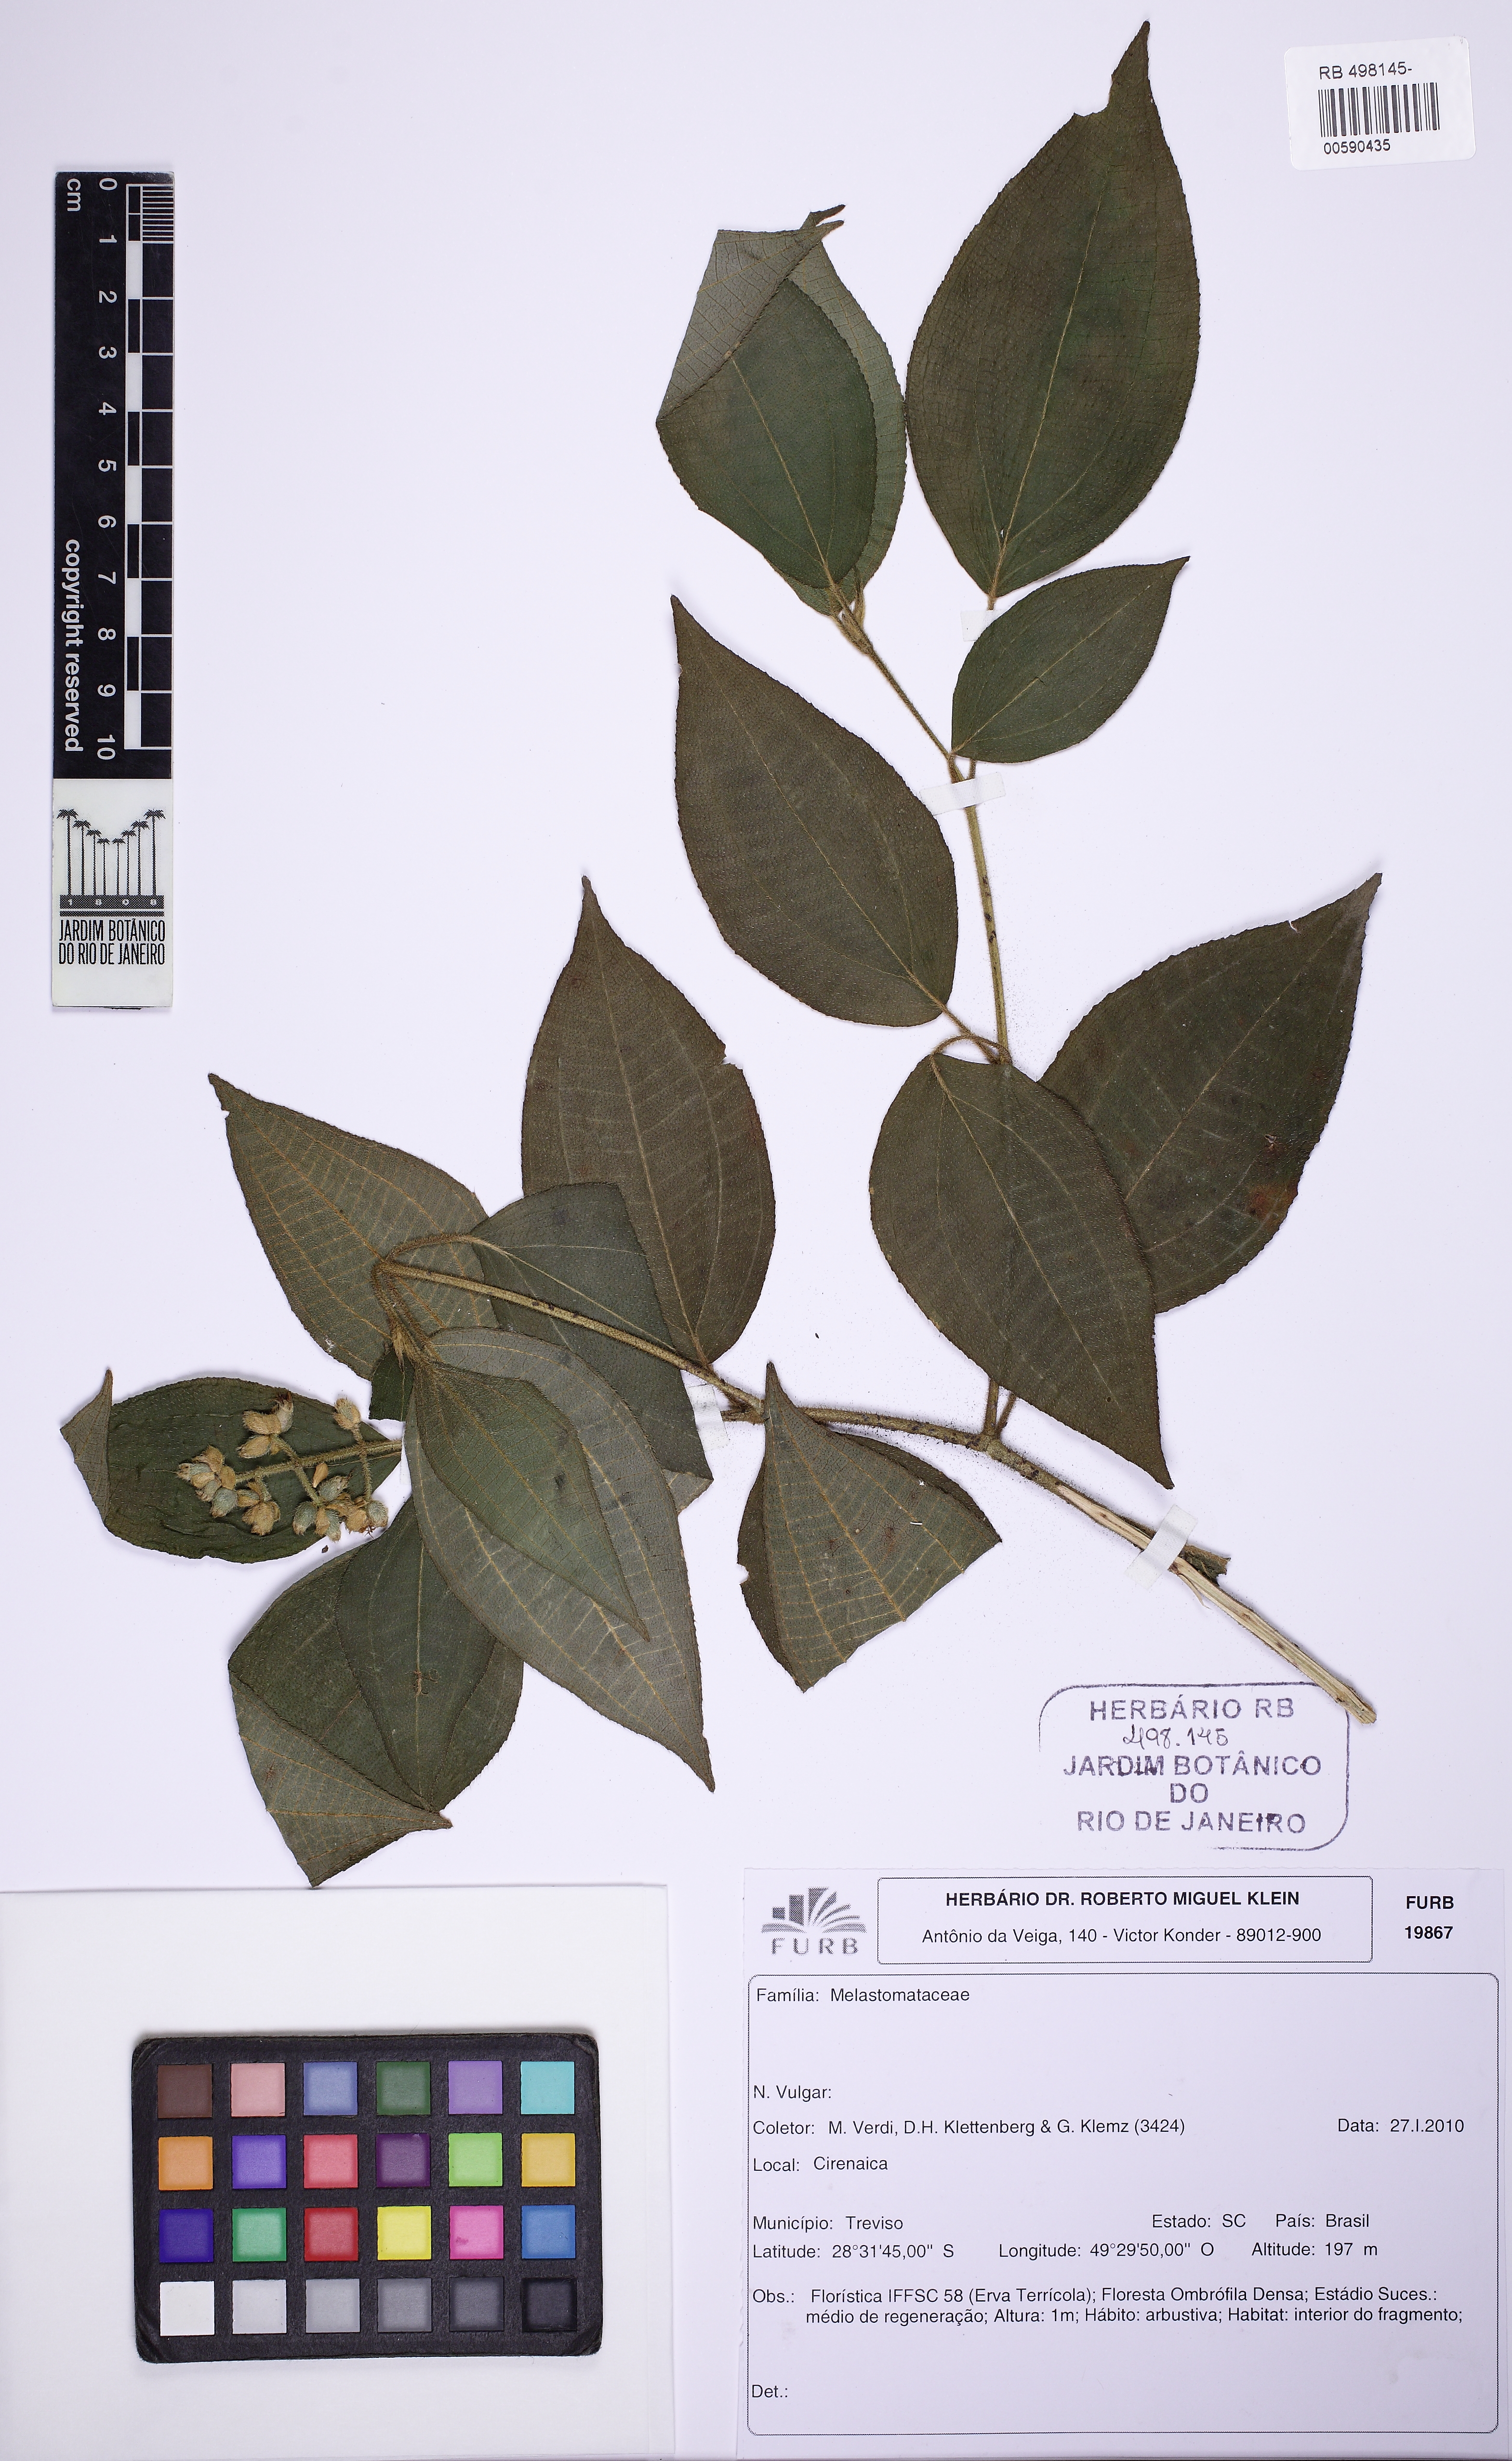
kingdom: Plantae
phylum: Tracheophyta
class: Magnoliopsida
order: Myrtales
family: Melastomataceae
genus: Miconia
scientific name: Miconia
